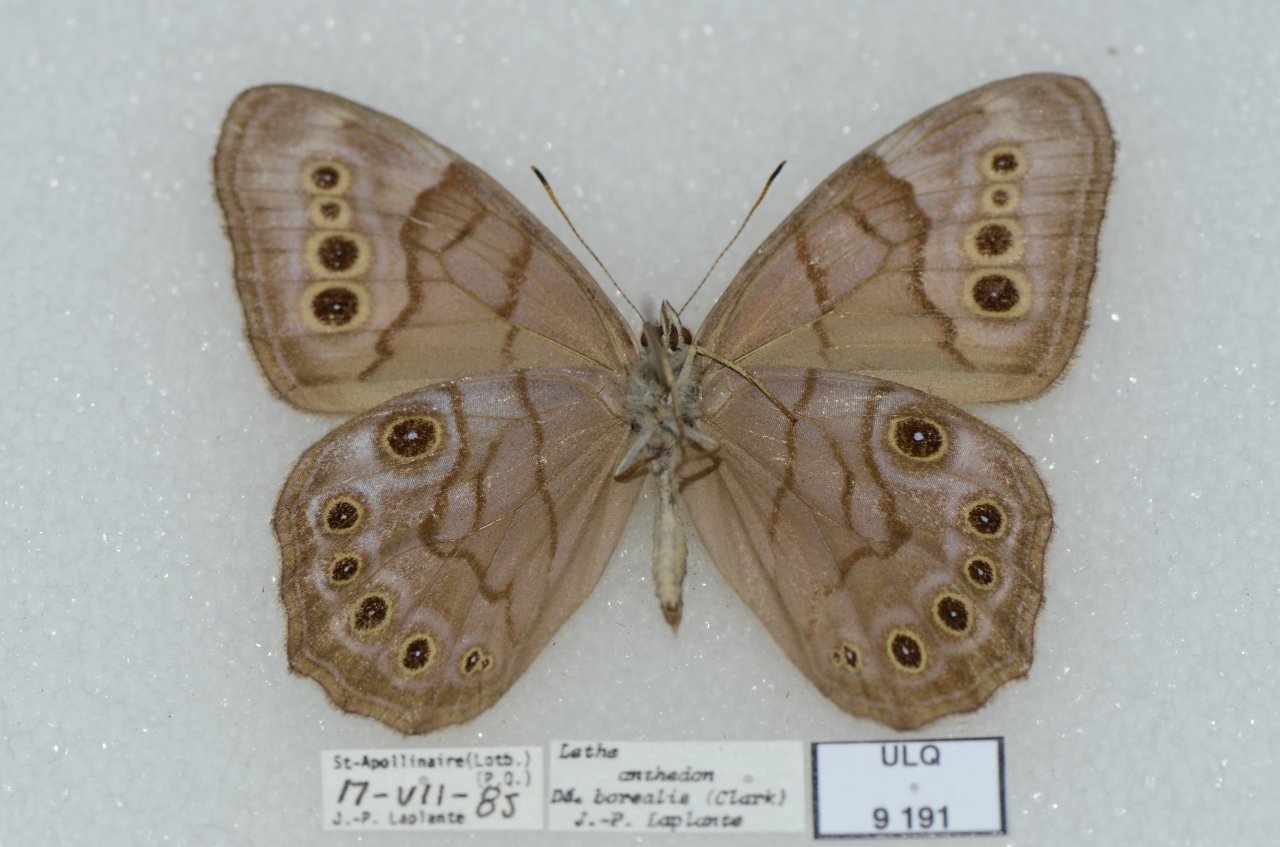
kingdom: Animalia
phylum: Arthropoda
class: Insecta
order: Lepidoptera
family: Nymphalidae
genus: Lethe
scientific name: Lethe anthedon
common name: Northern Pearly-Eye
